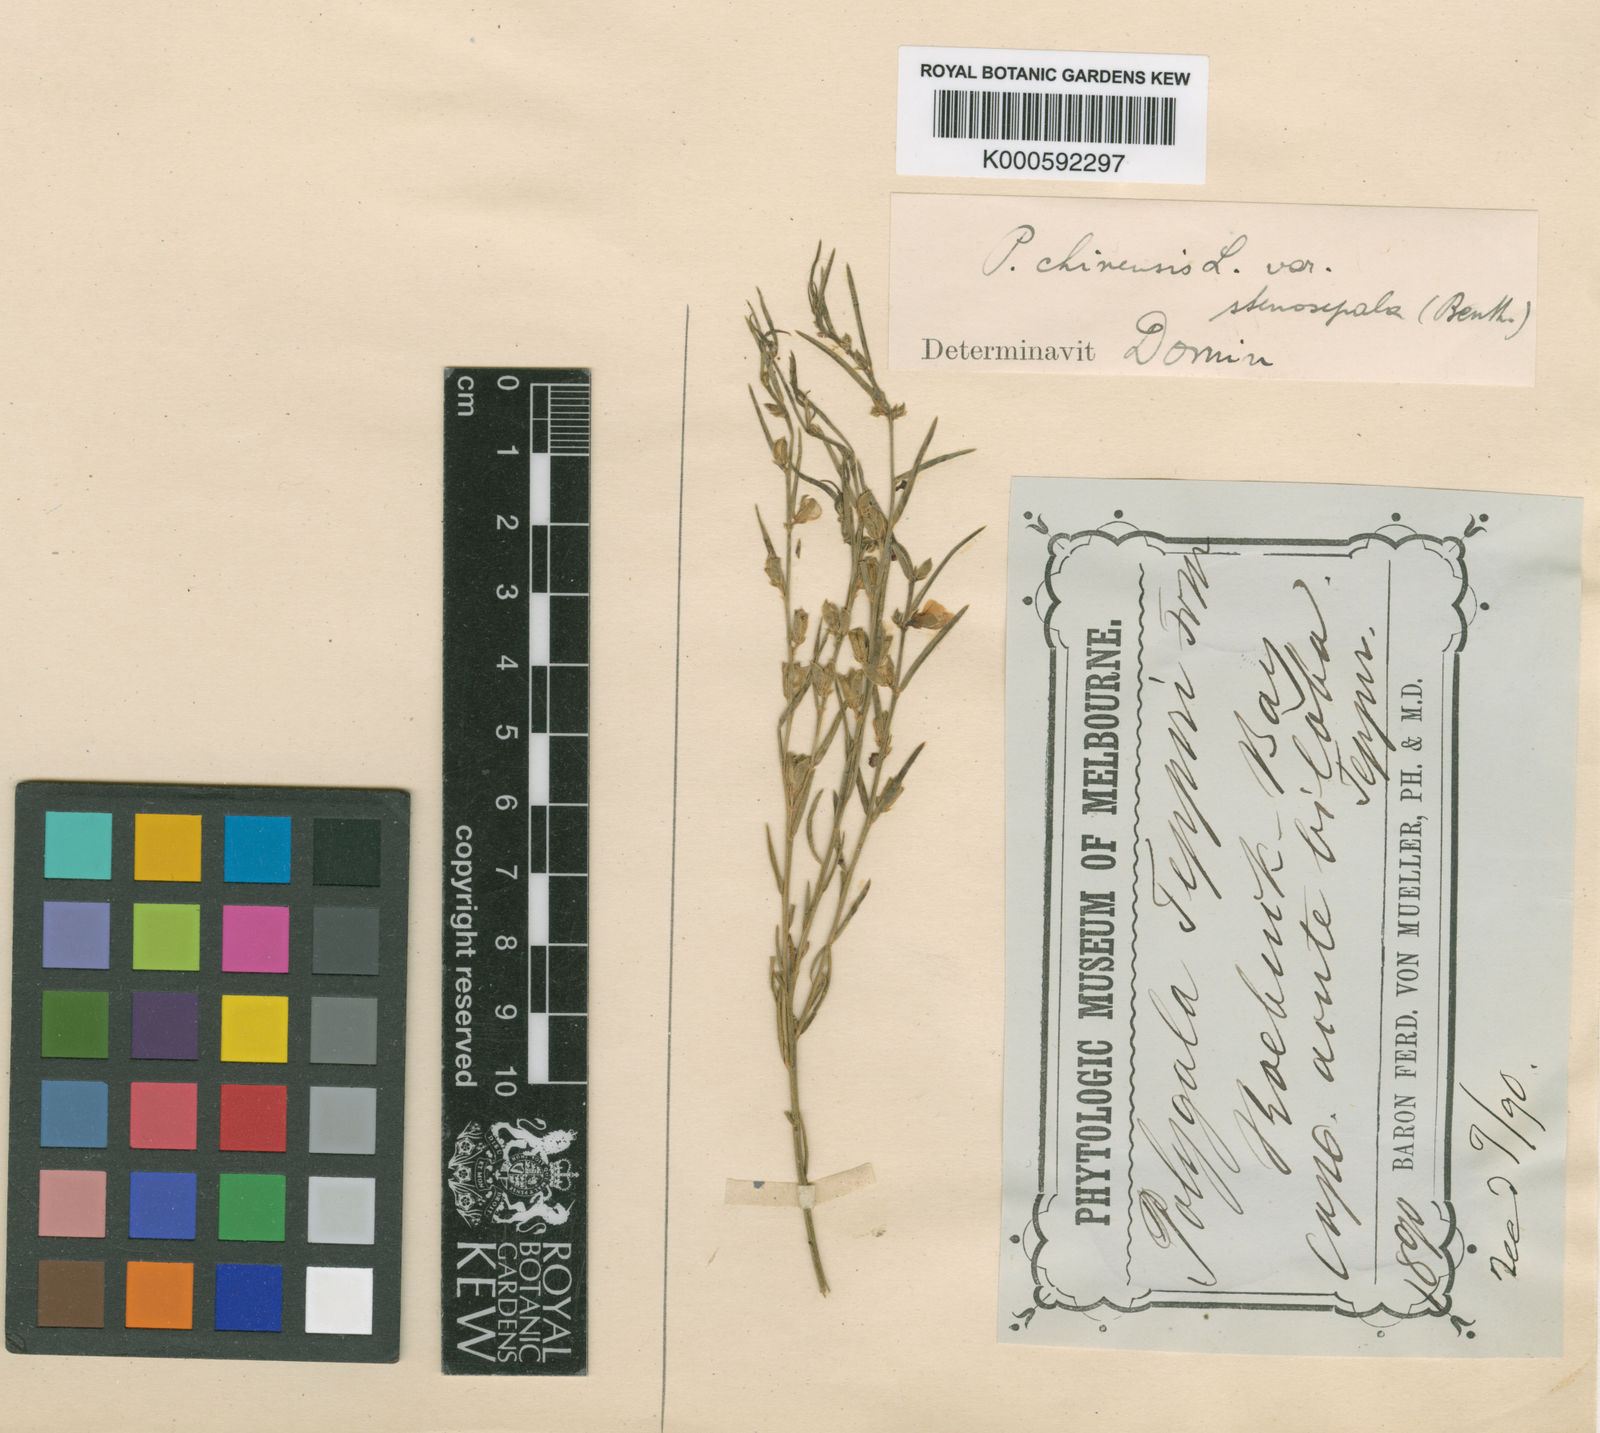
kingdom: Plantae
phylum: Tracheophyta
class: Magnoliopsida
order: Fabales
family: Polygalaceae
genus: Polygala
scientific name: Polygala tepperi
